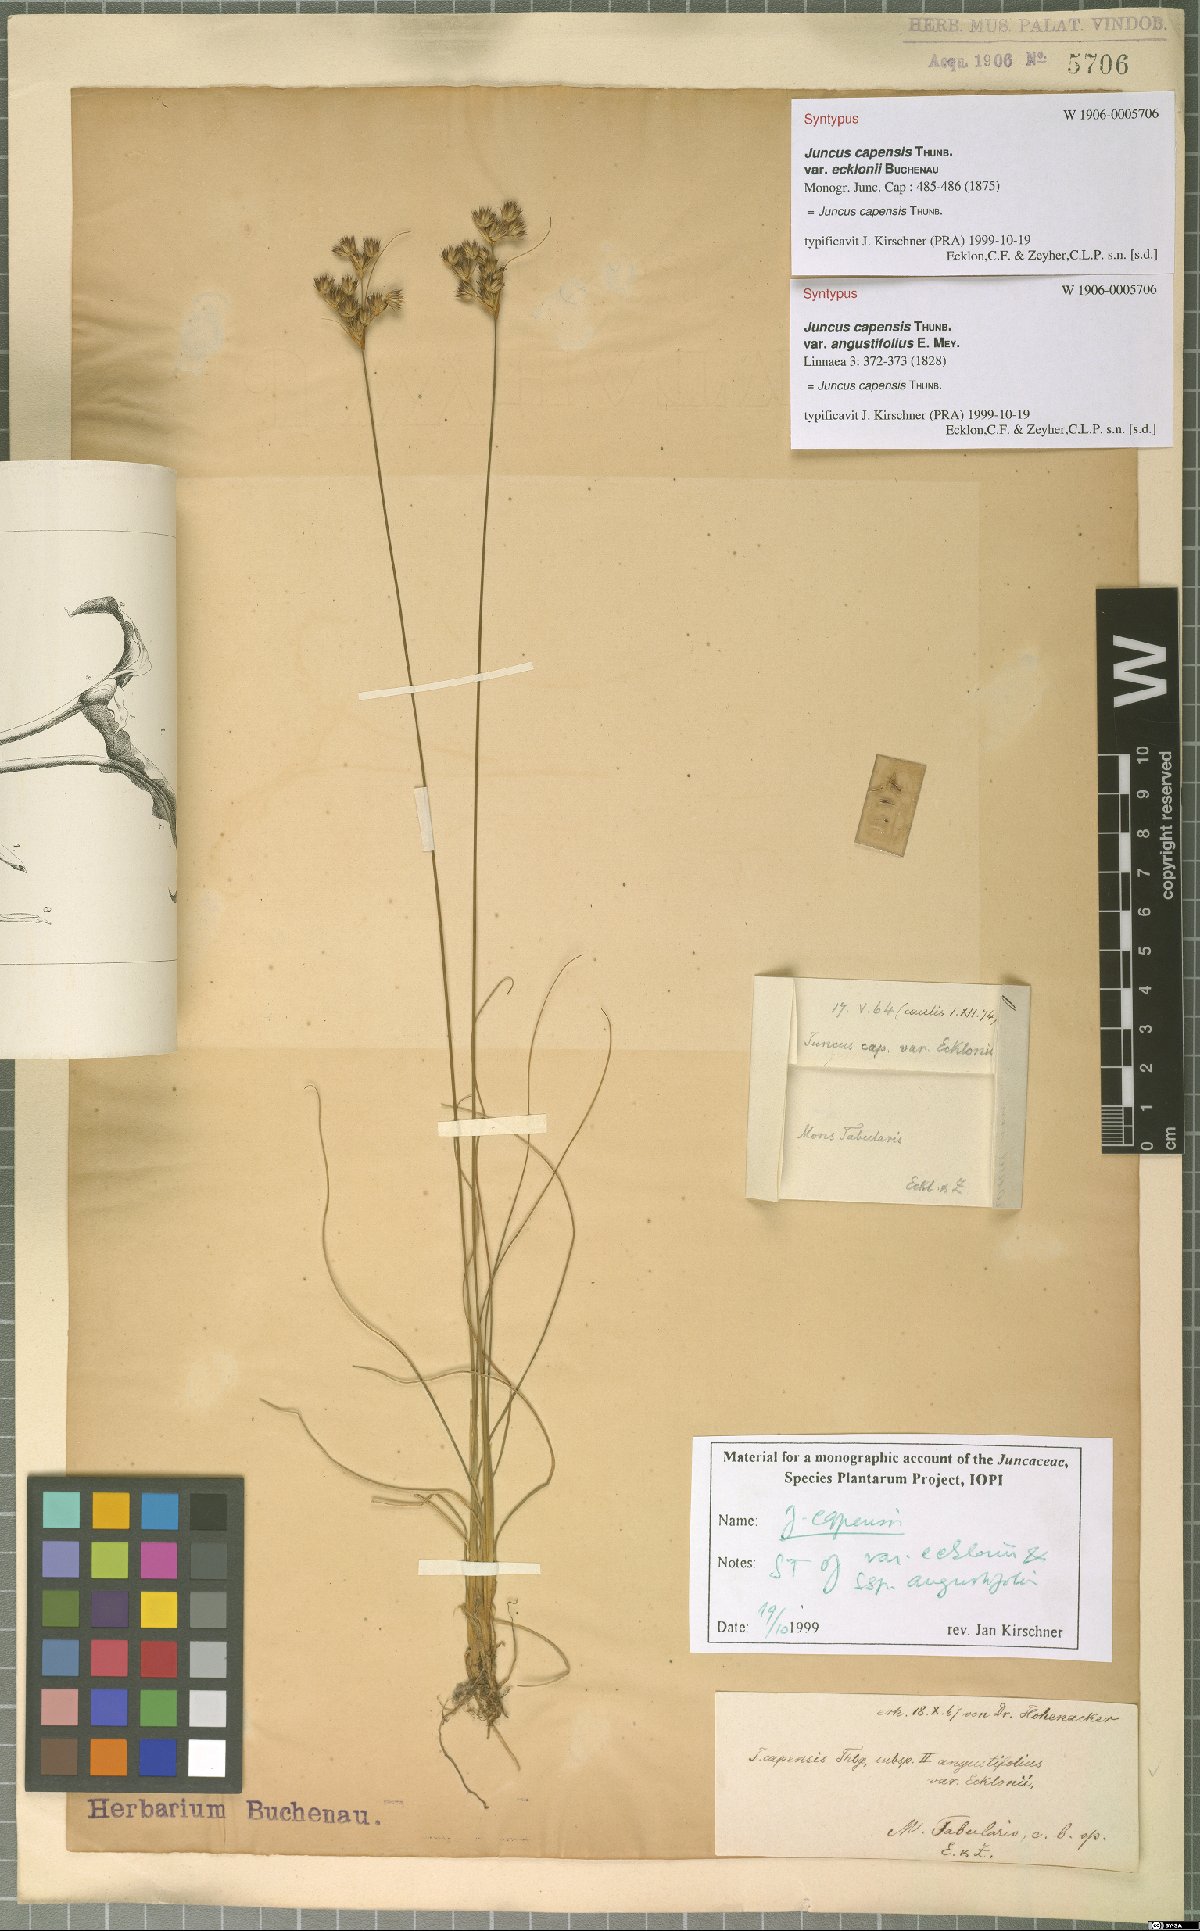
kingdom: Plantae
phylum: Tracheophyta
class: Liliopsida
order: Poales
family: Juncaceae
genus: Juncus
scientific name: Juncus capensis
